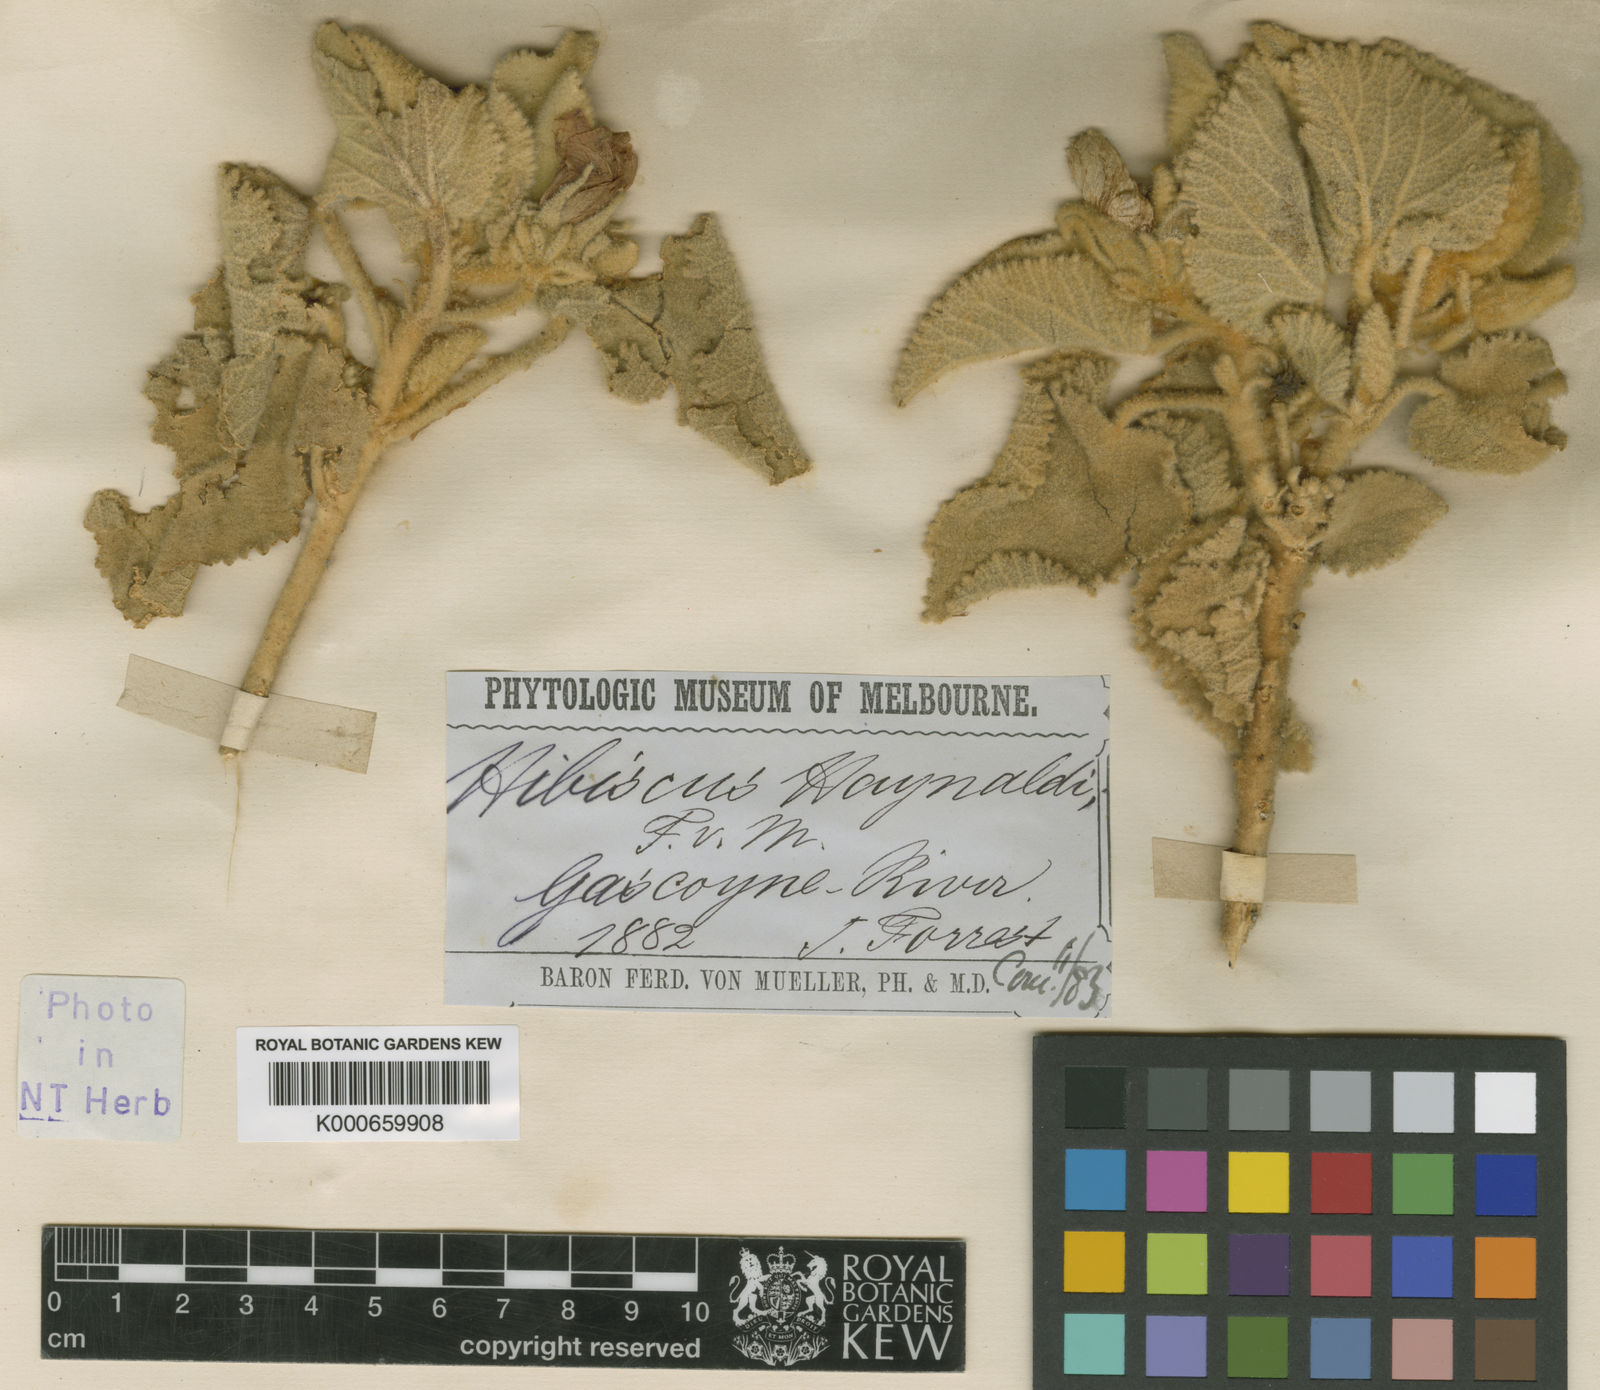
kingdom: Plantae
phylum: Tracheophyta
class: Magnoliopsida
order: Malvales
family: Malvaceae
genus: Hibiscus
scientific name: Hibiscus haynaldii
